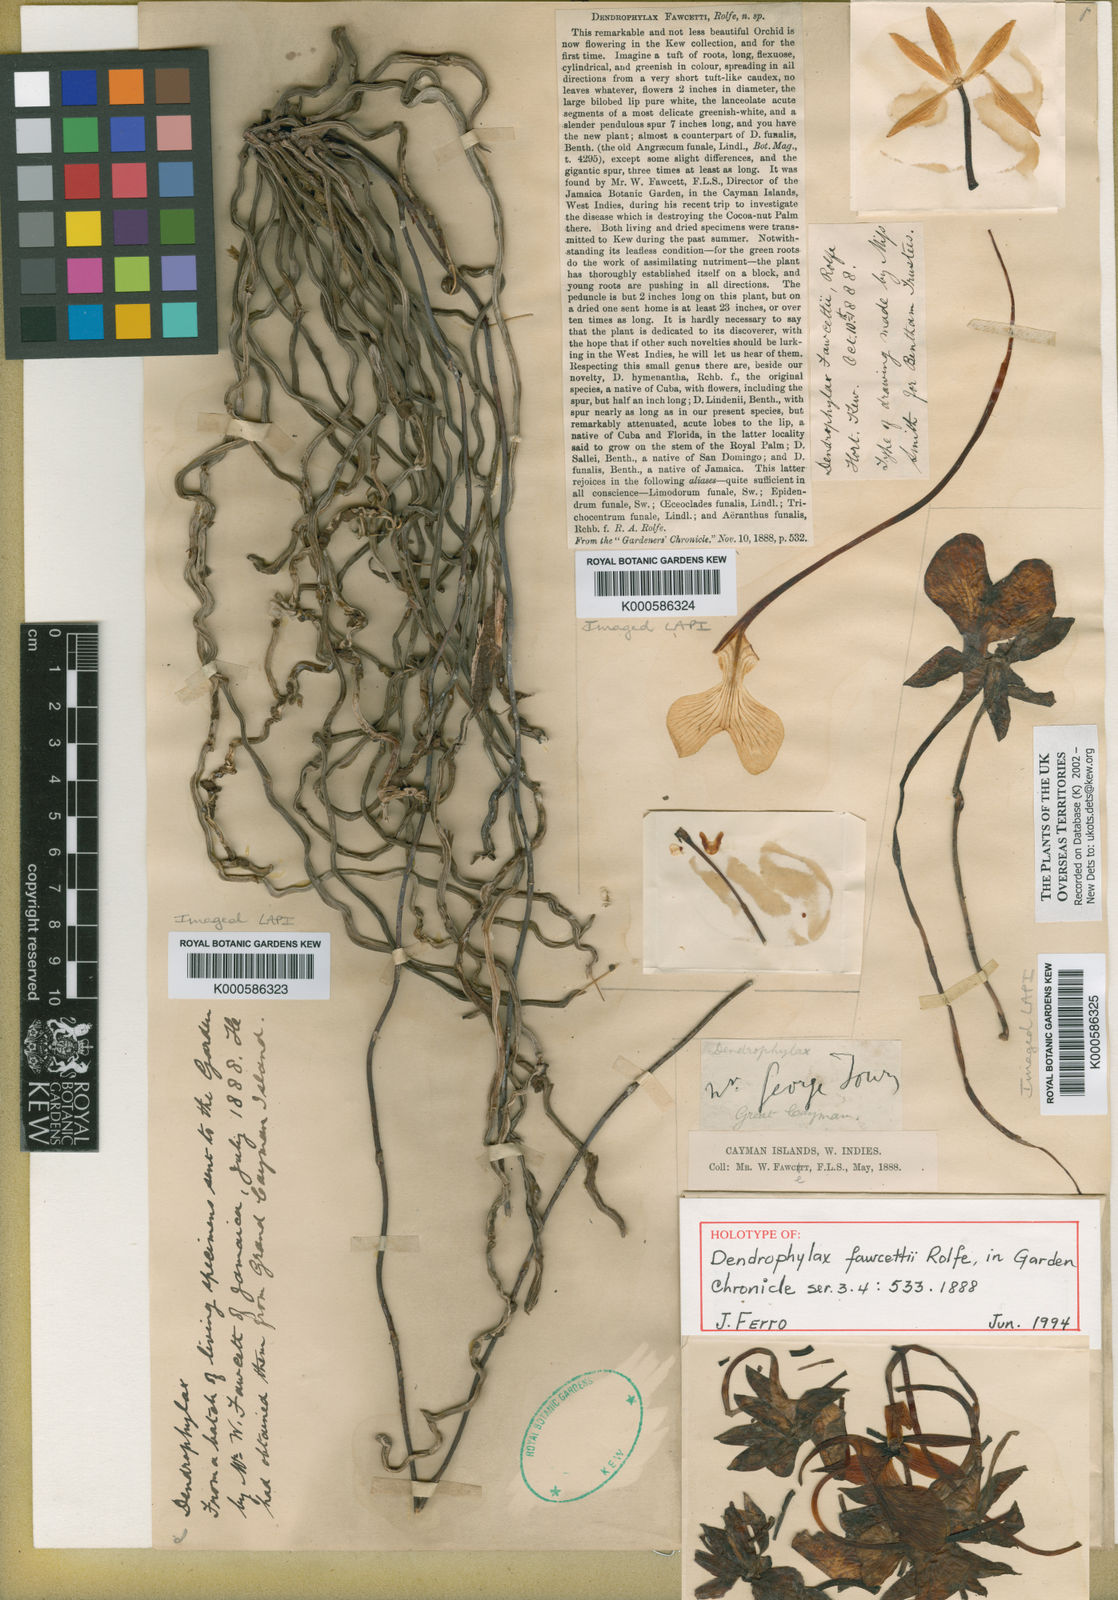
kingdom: Plantae
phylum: Tracheophyta
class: Liliopsida
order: Asparagales
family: Orchidaceae
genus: Dendrophylax
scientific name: Dendrophylax fawcettii
